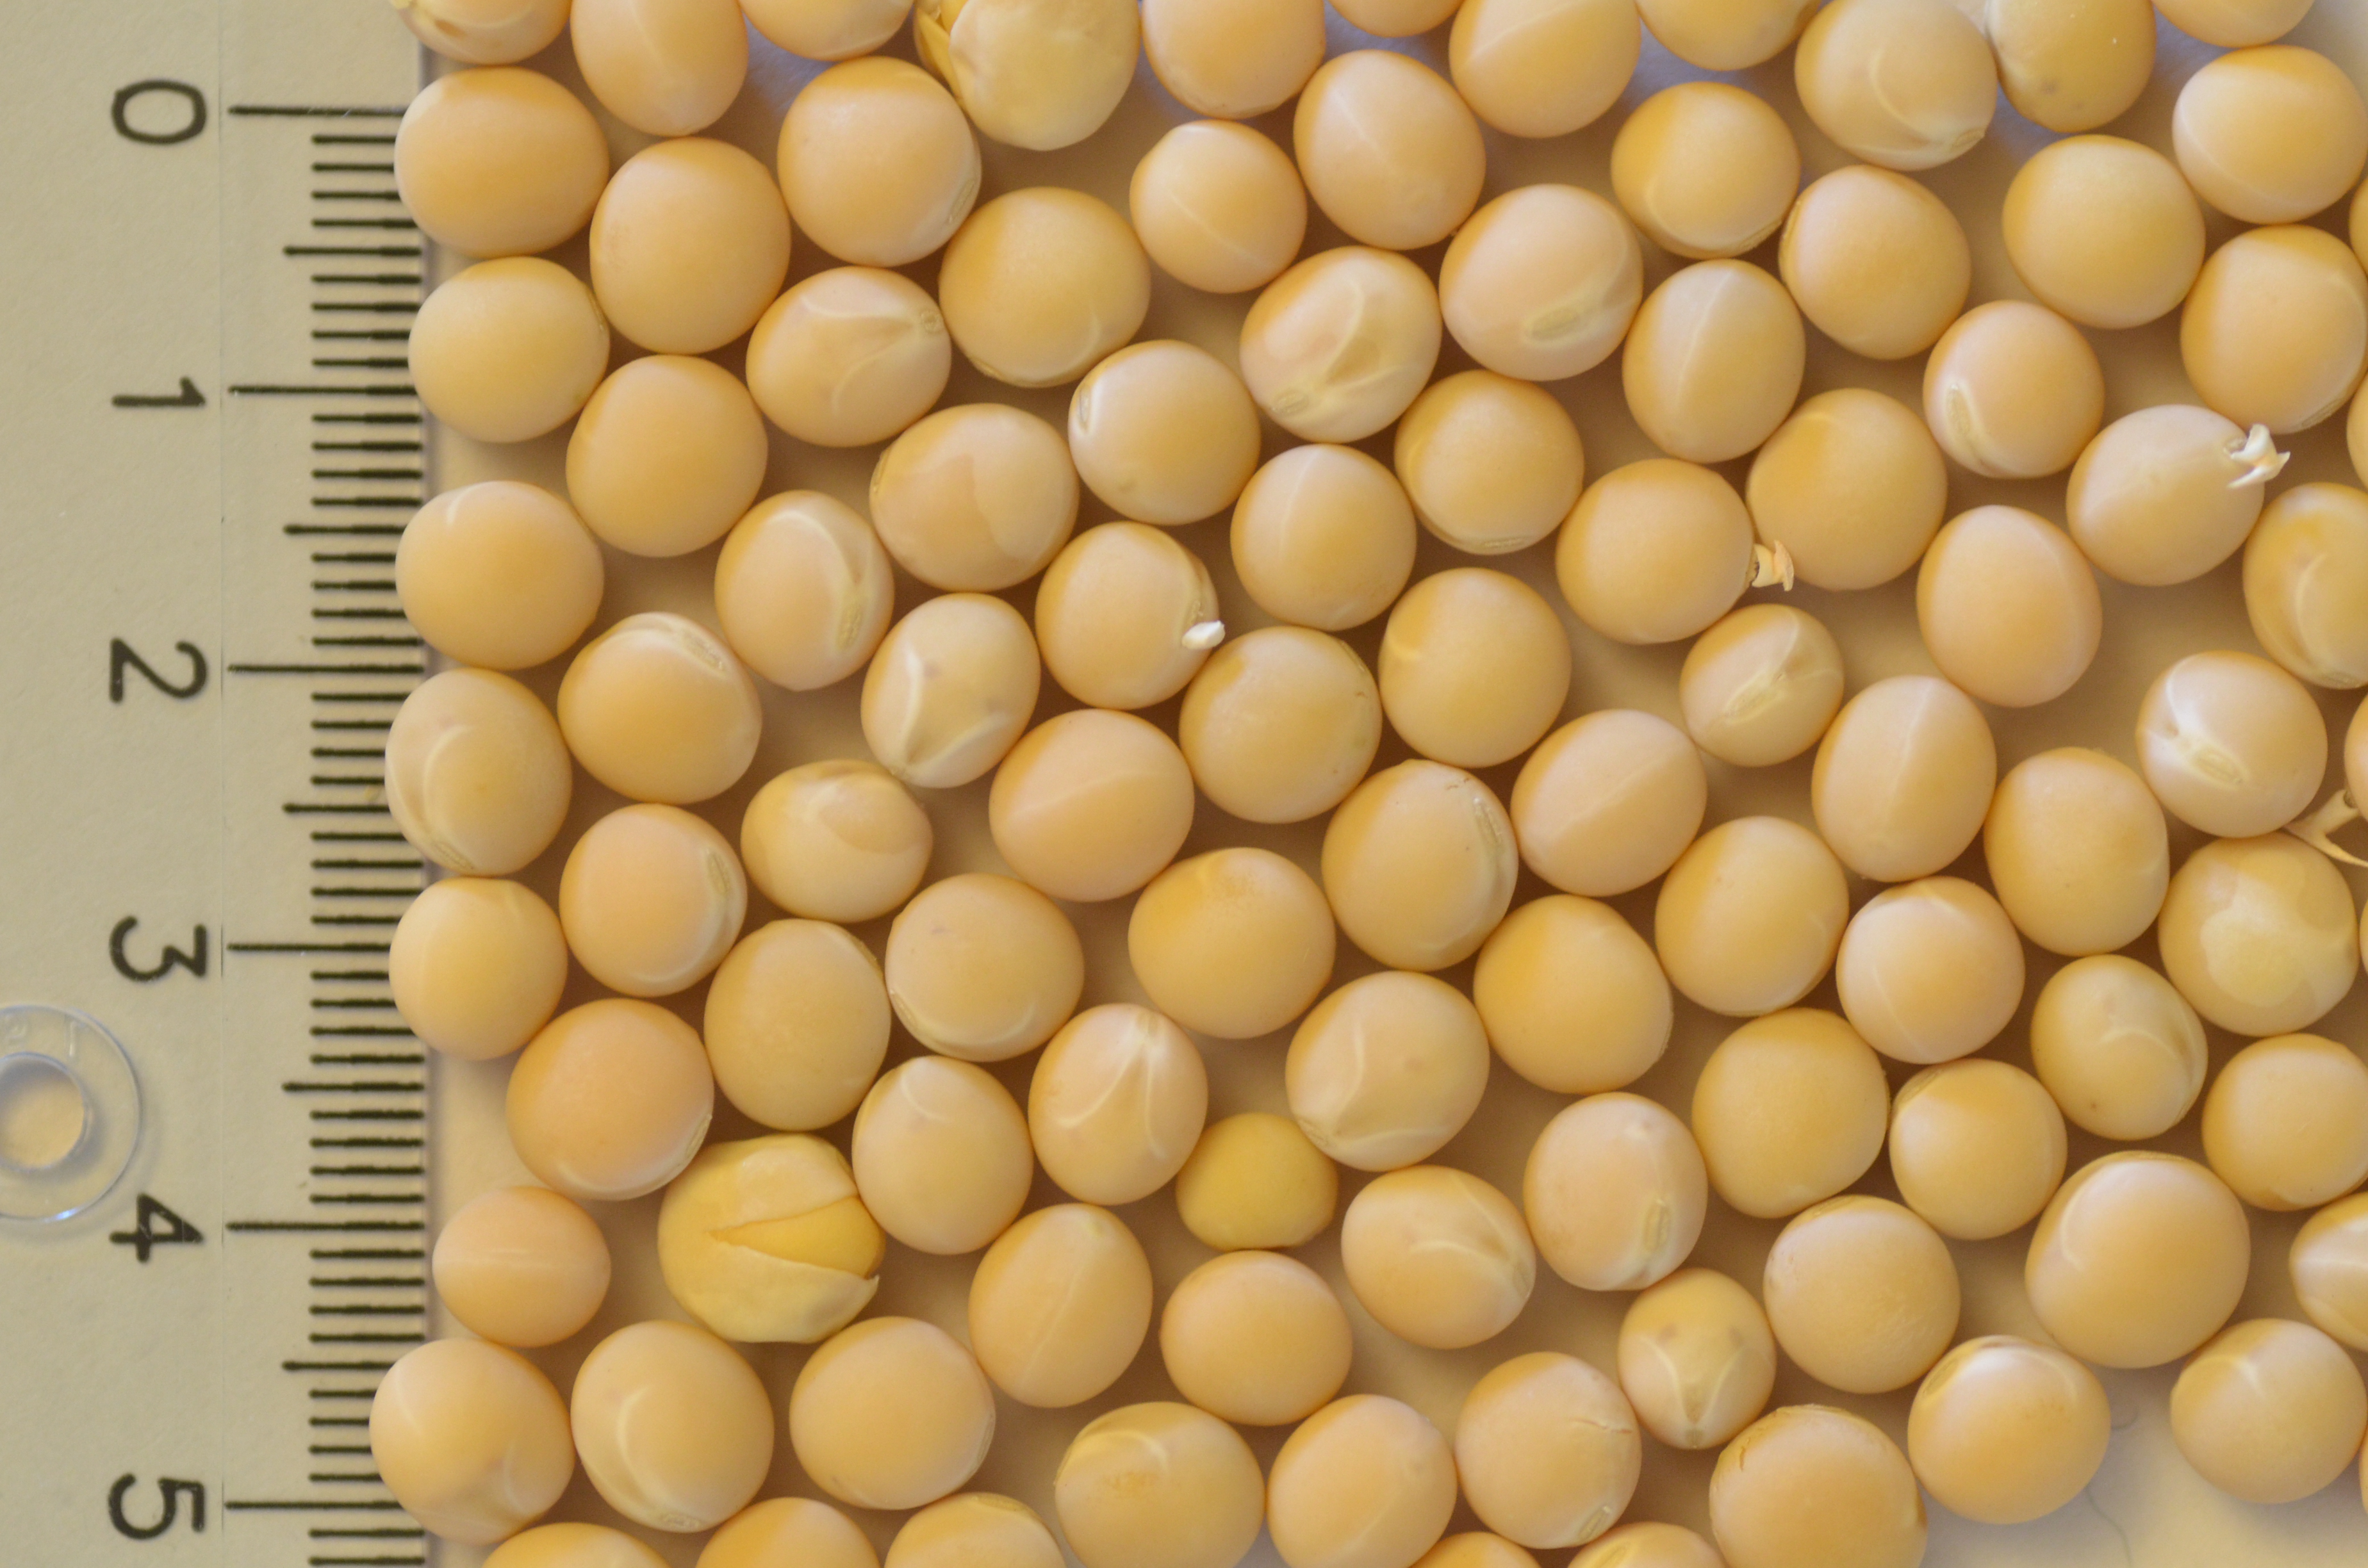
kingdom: Plantae
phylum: Tracheophyta
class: Magnoliopsida
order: Fabales
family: Fabaceae
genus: Lathyrus
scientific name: Lathyrus oleraceus
